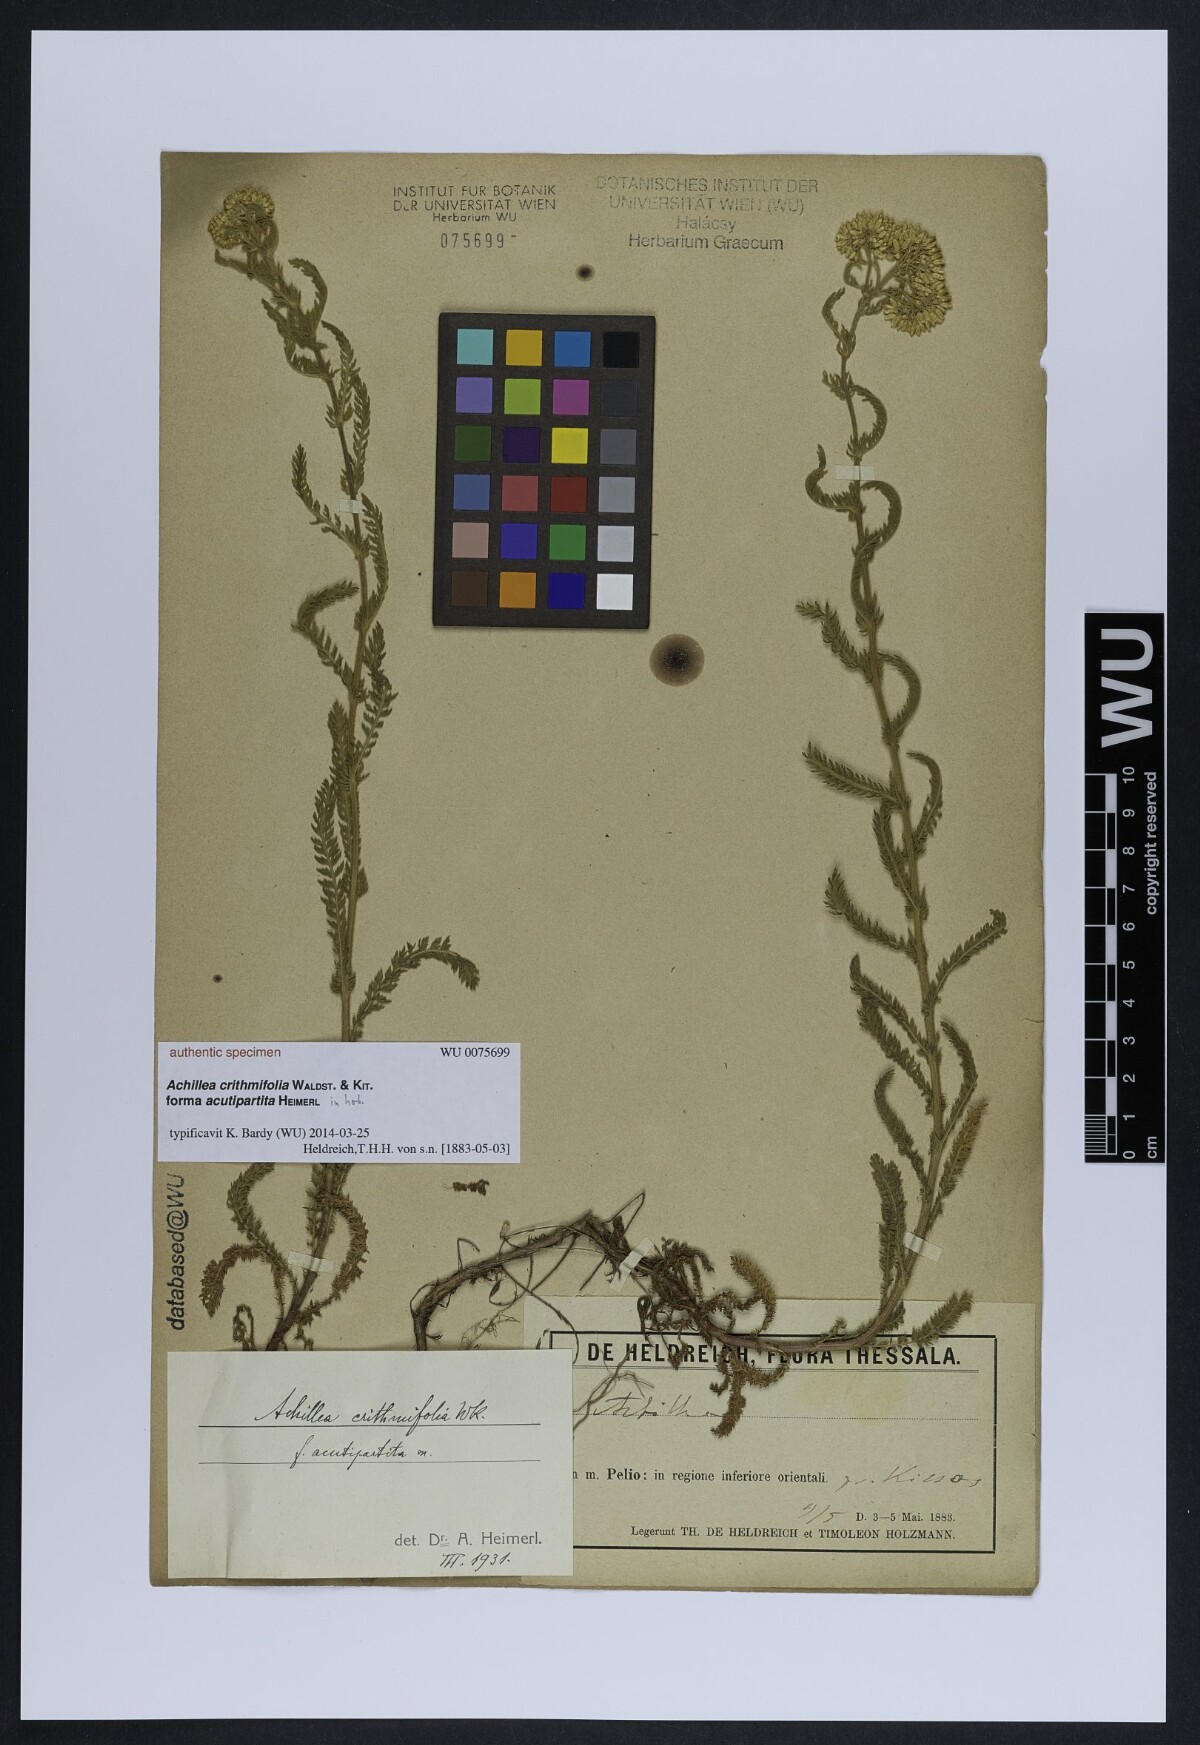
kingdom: Plantae
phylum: Tracheophyta
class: Magnoliopsida
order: Asterales
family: Asteraceae
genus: Achillea
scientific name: Achillea crithmifolia
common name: Yarrow
